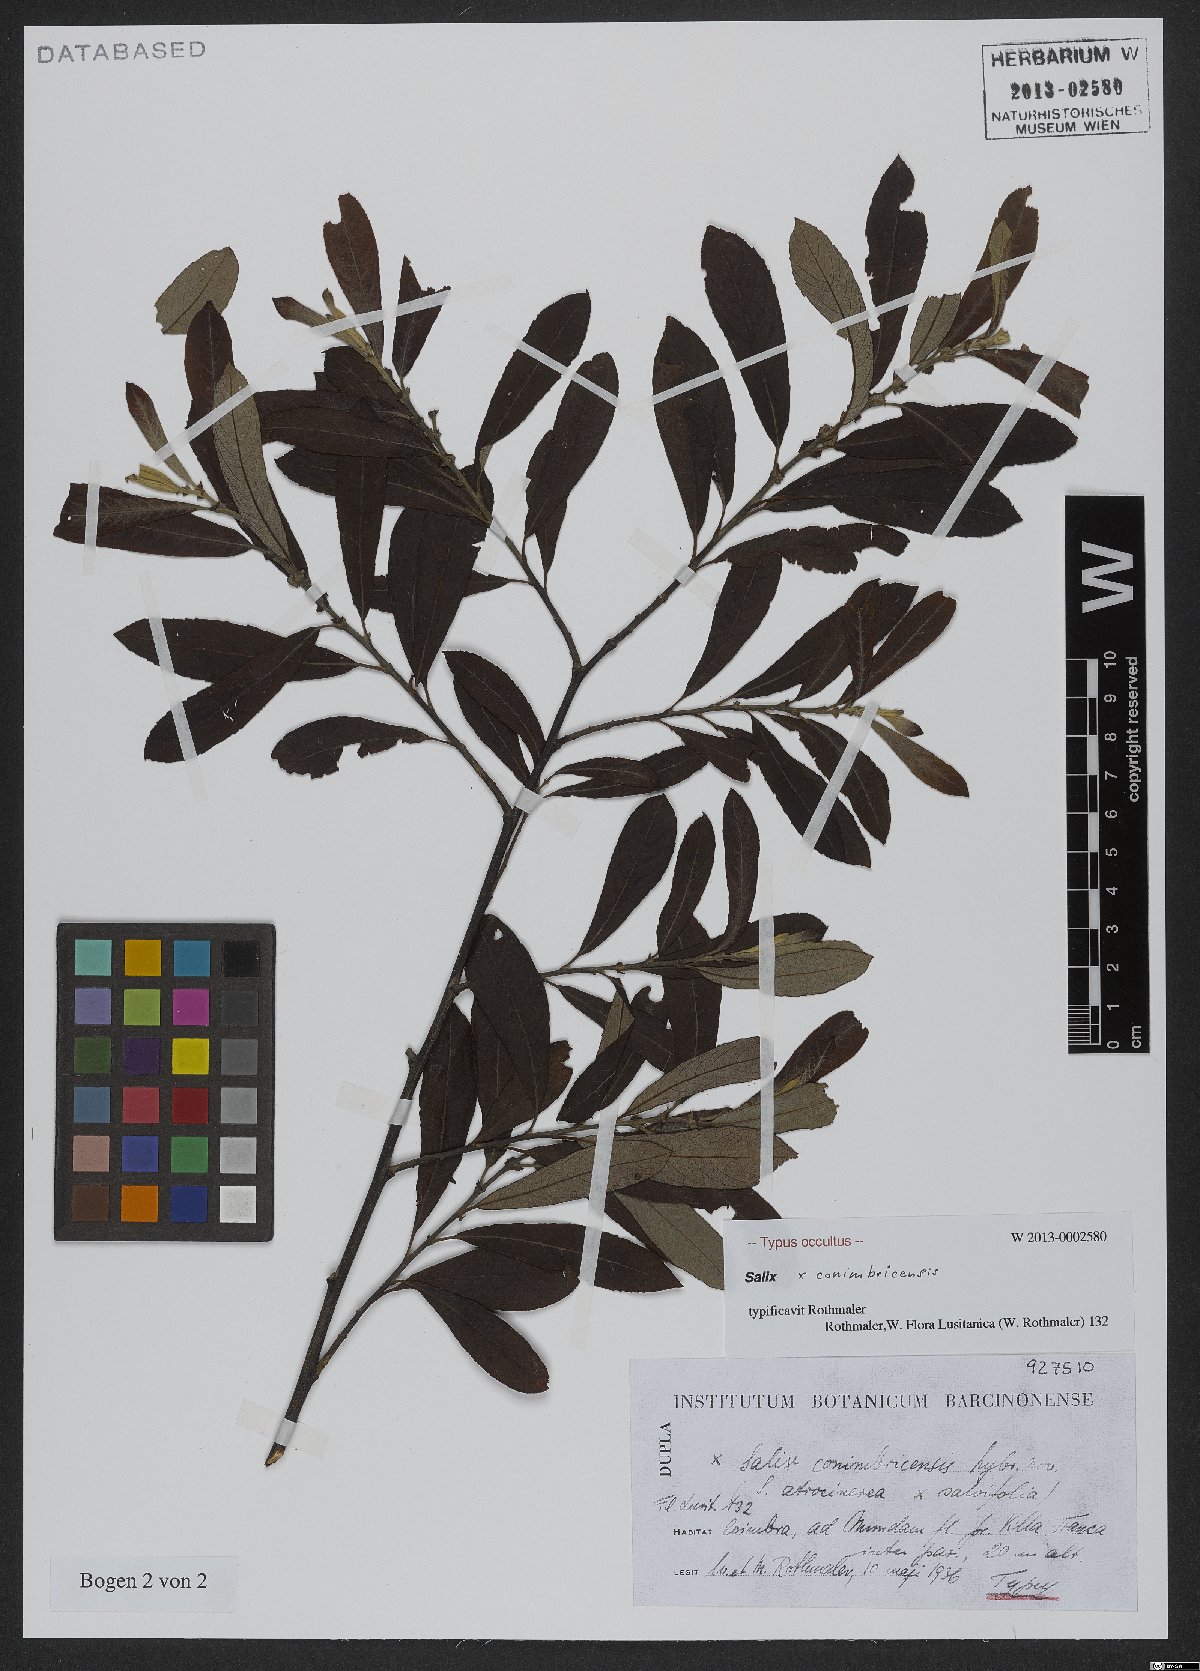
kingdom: Plantae
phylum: Tracheophyta
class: Magnoliopsida
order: Malpighiales
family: Salicaceae
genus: Salix
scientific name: Salix
